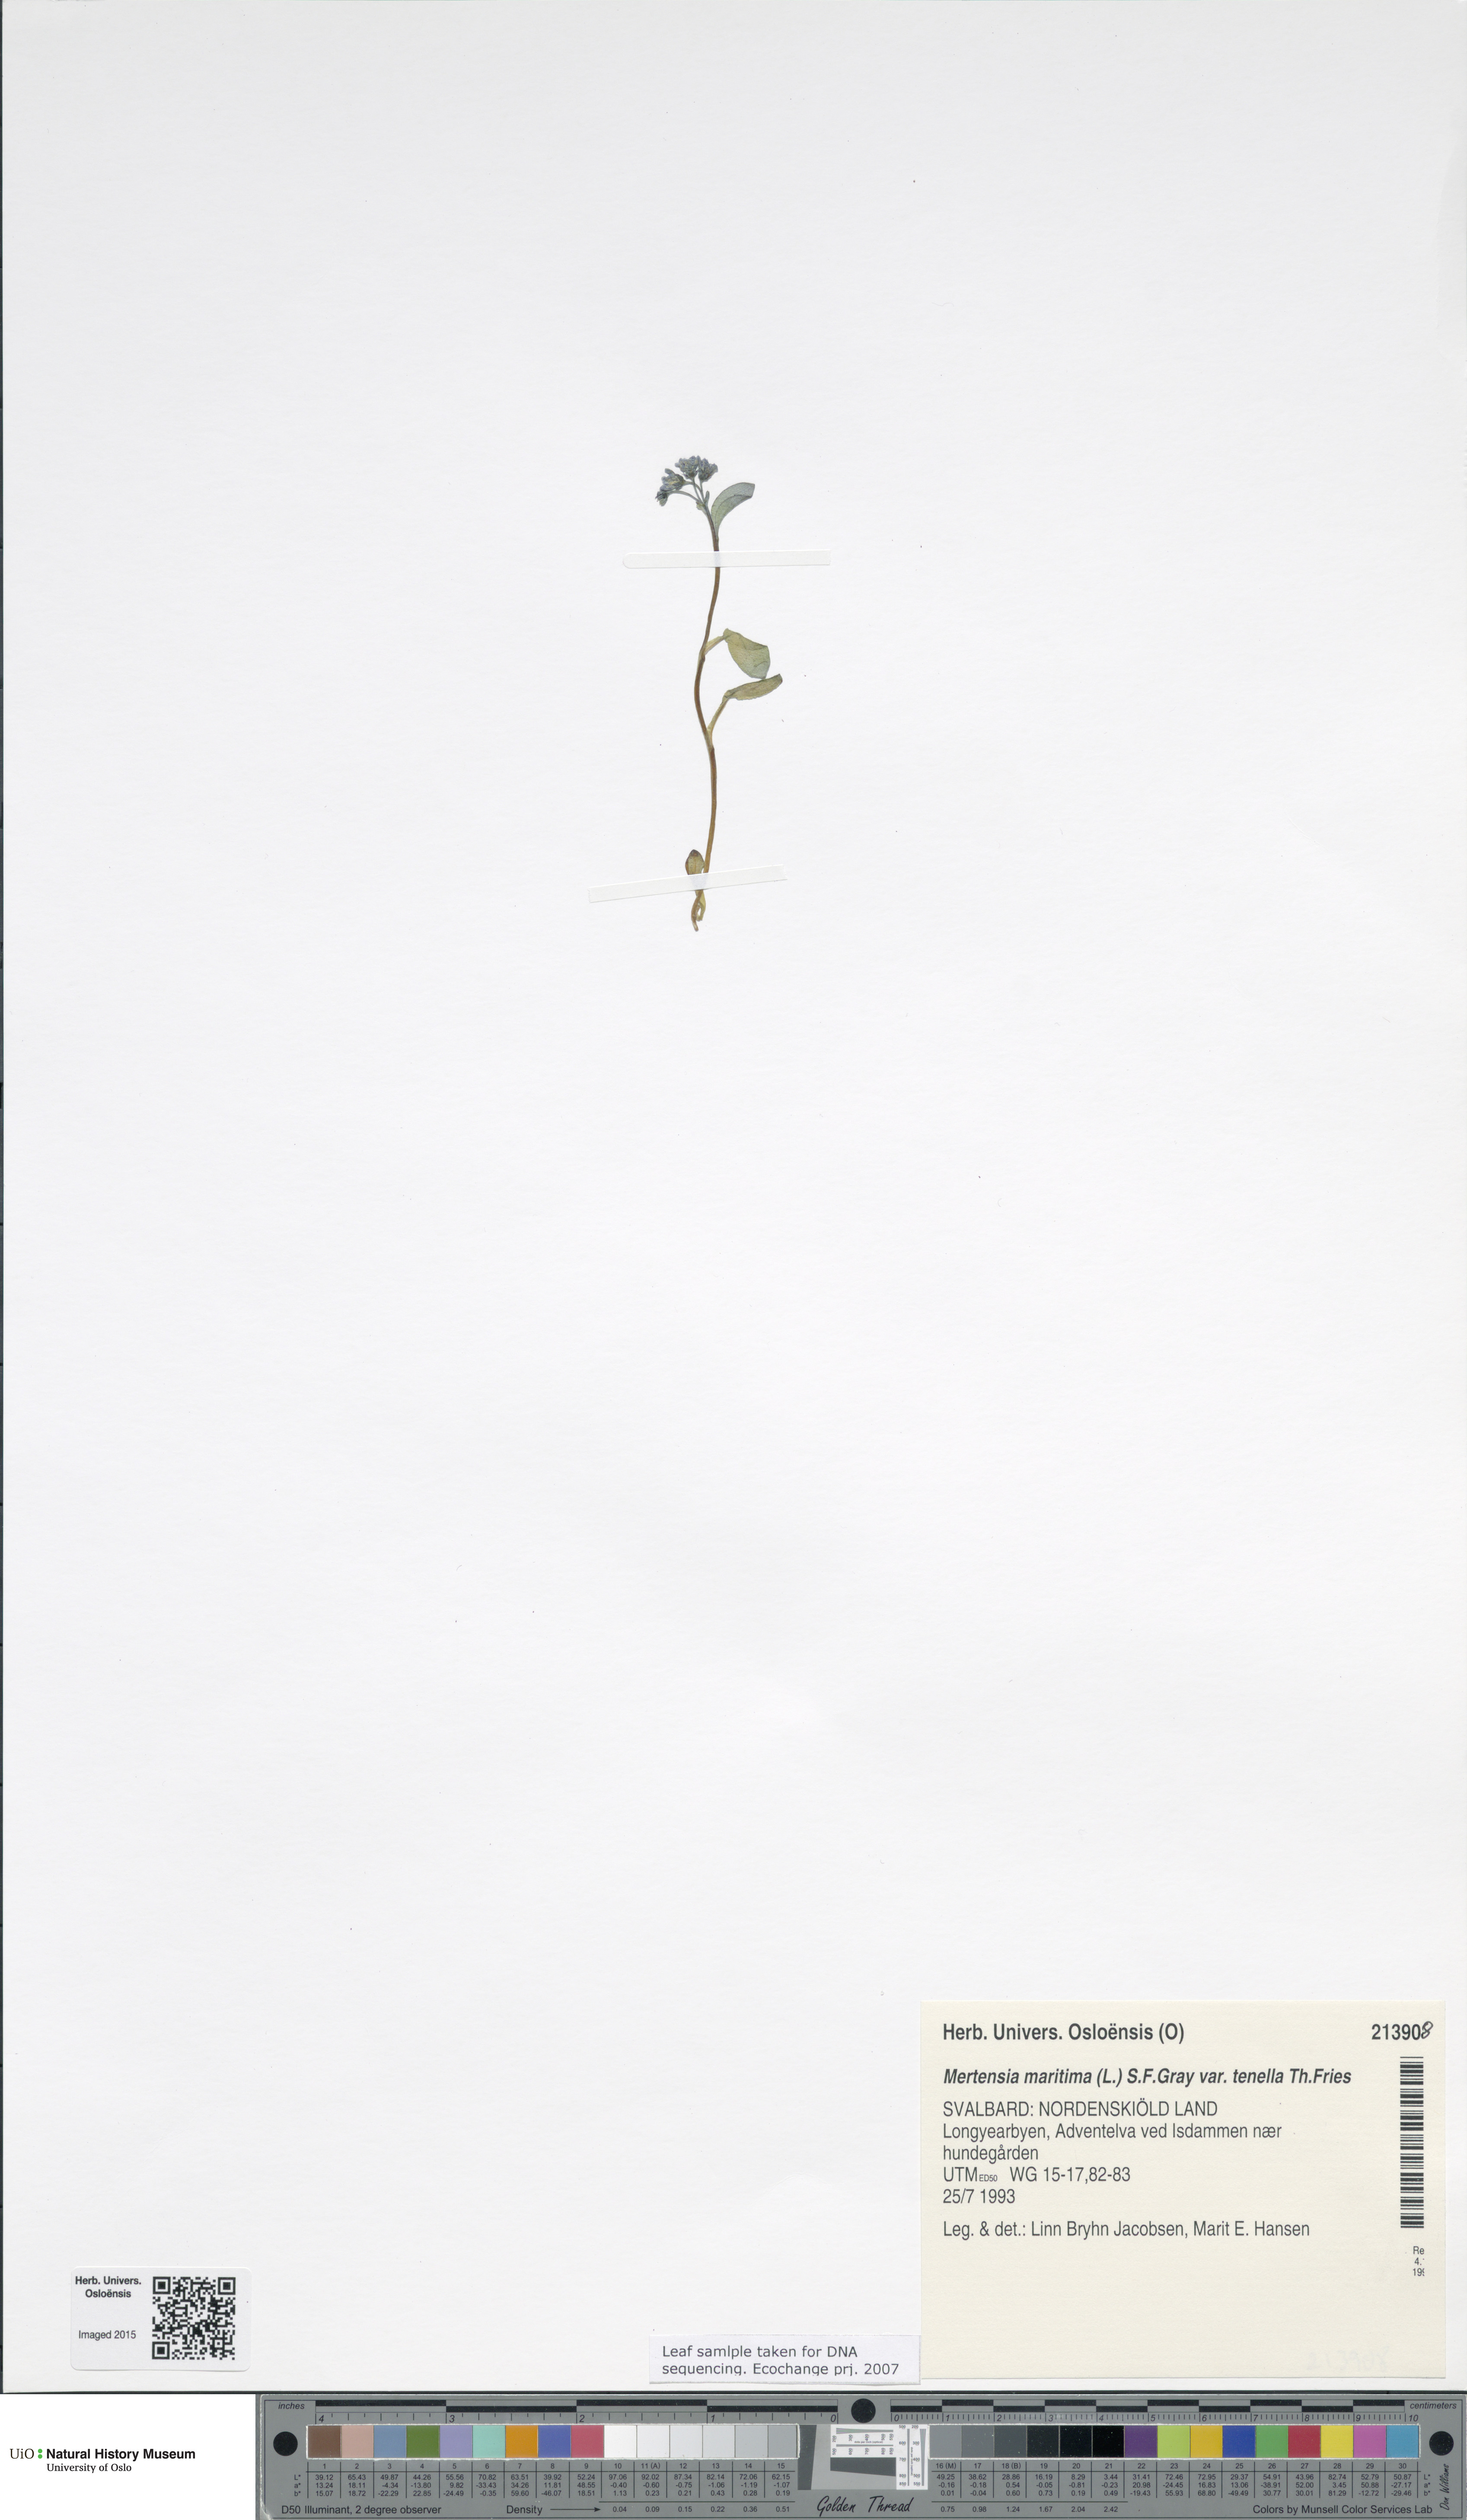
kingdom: Plantae
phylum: Tracheophyta
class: Magnoliopsida
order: Boraginales
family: Boraginaceae
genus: Mertensia
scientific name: Mertensia maritima
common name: Oysterplant
